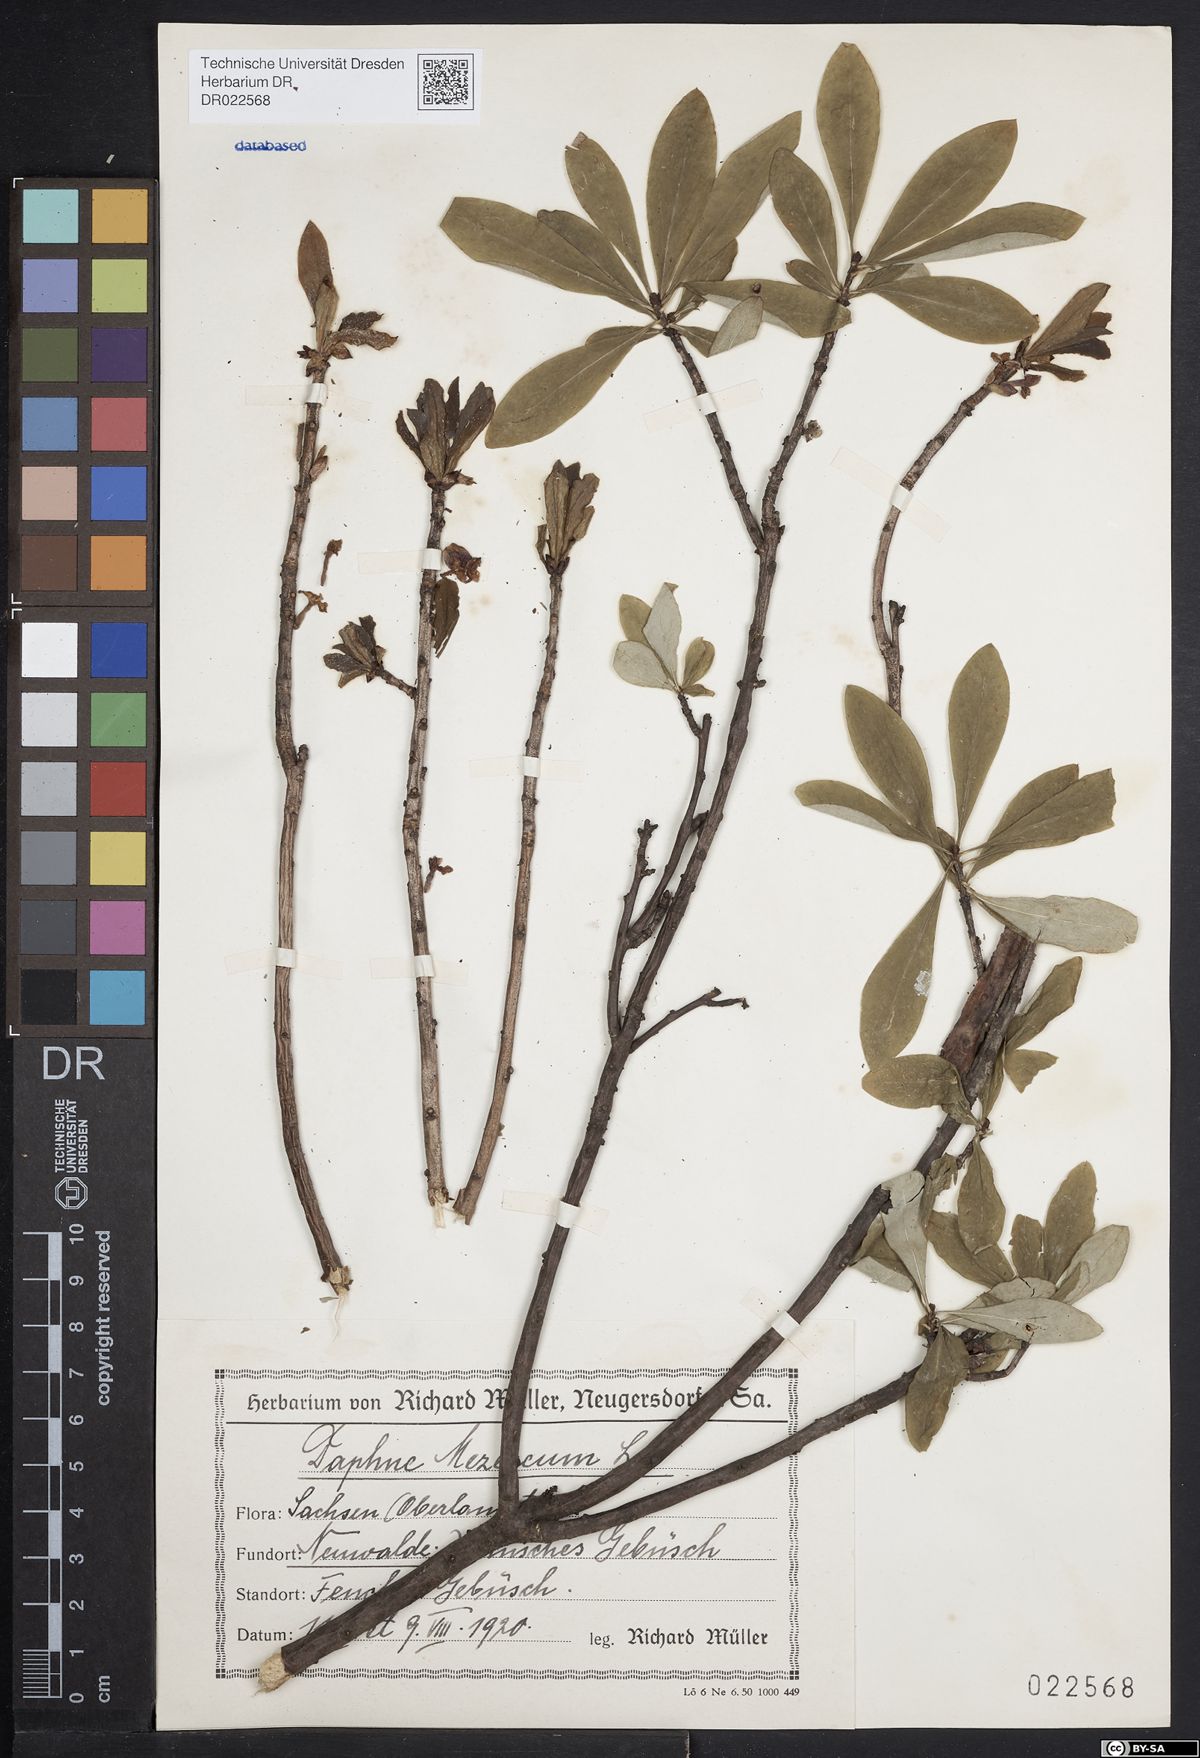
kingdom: Plantae
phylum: Tracheophyta
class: Magnoliopsida
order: Malvales
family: Thymelaeaceae
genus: Daphne
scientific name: Daphne mezereum
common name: Mezereon
